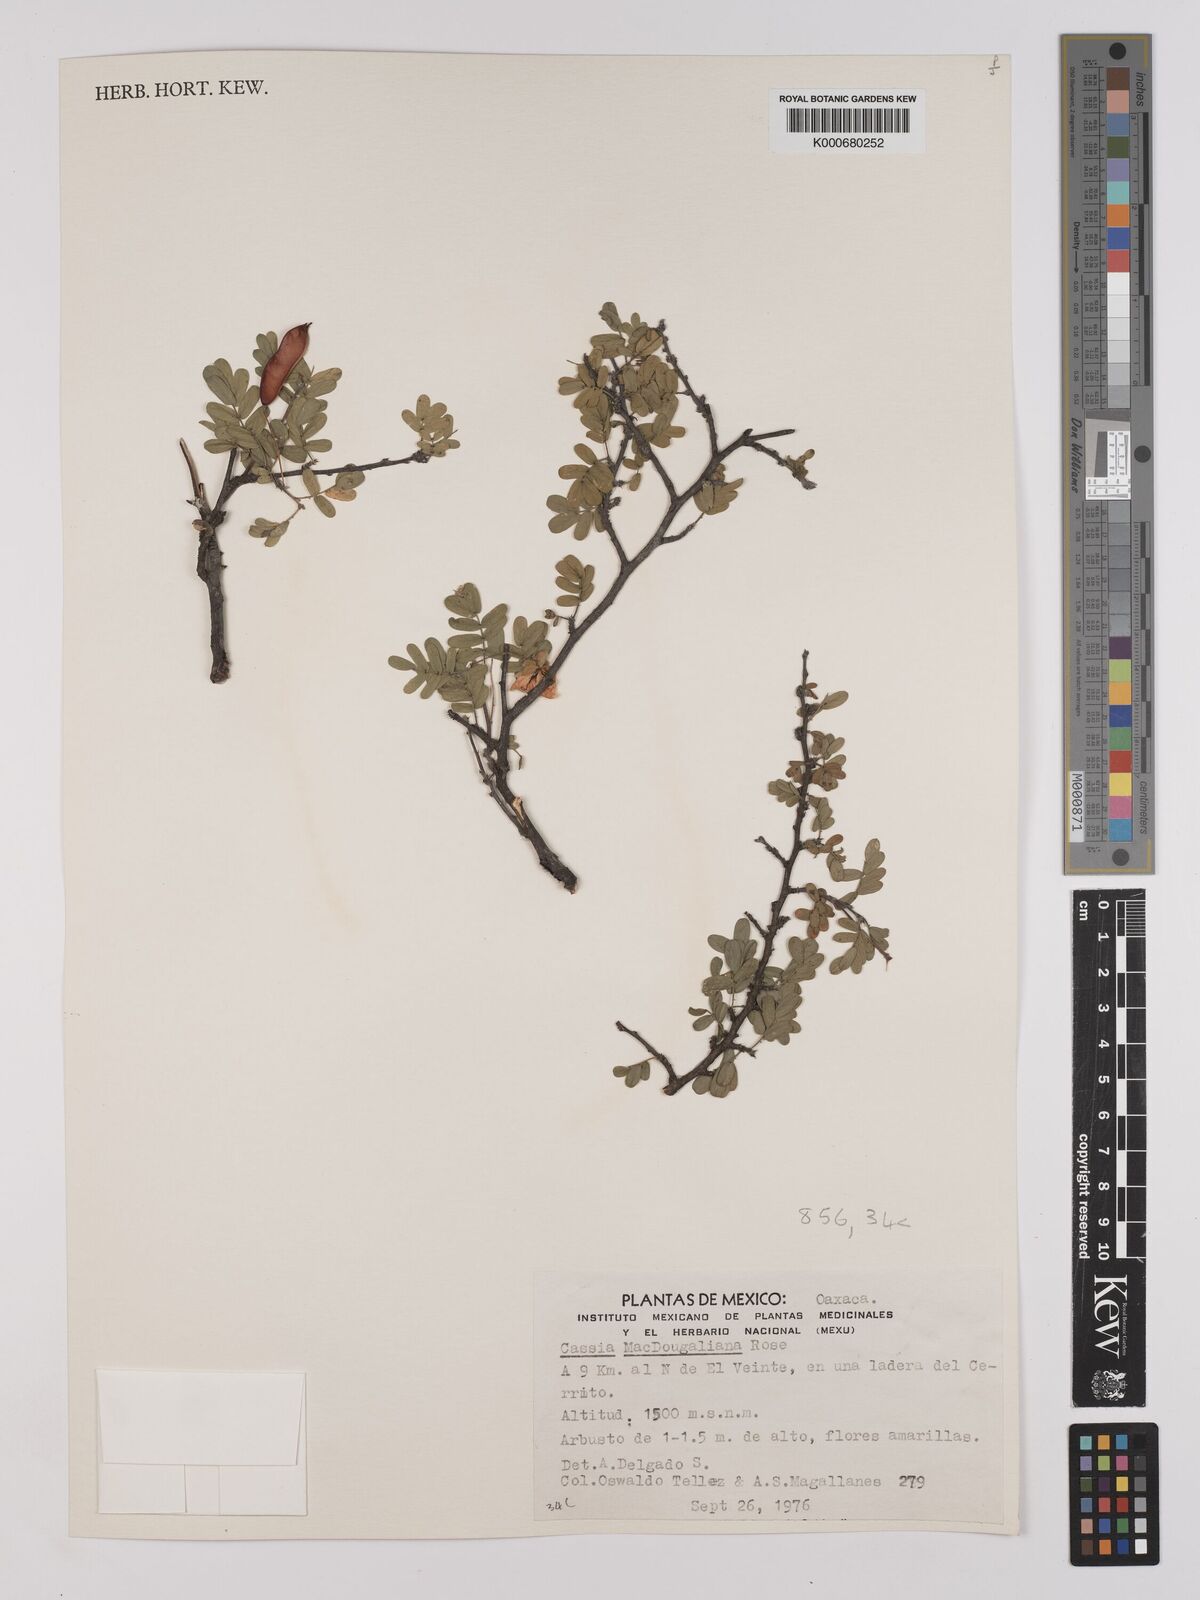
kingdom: Plantae
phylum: Tracheophyta
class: Magnoliopsida
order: Fabales
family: Fabaceae
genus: Chamaecrista
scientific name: Chamaecrista greggii
